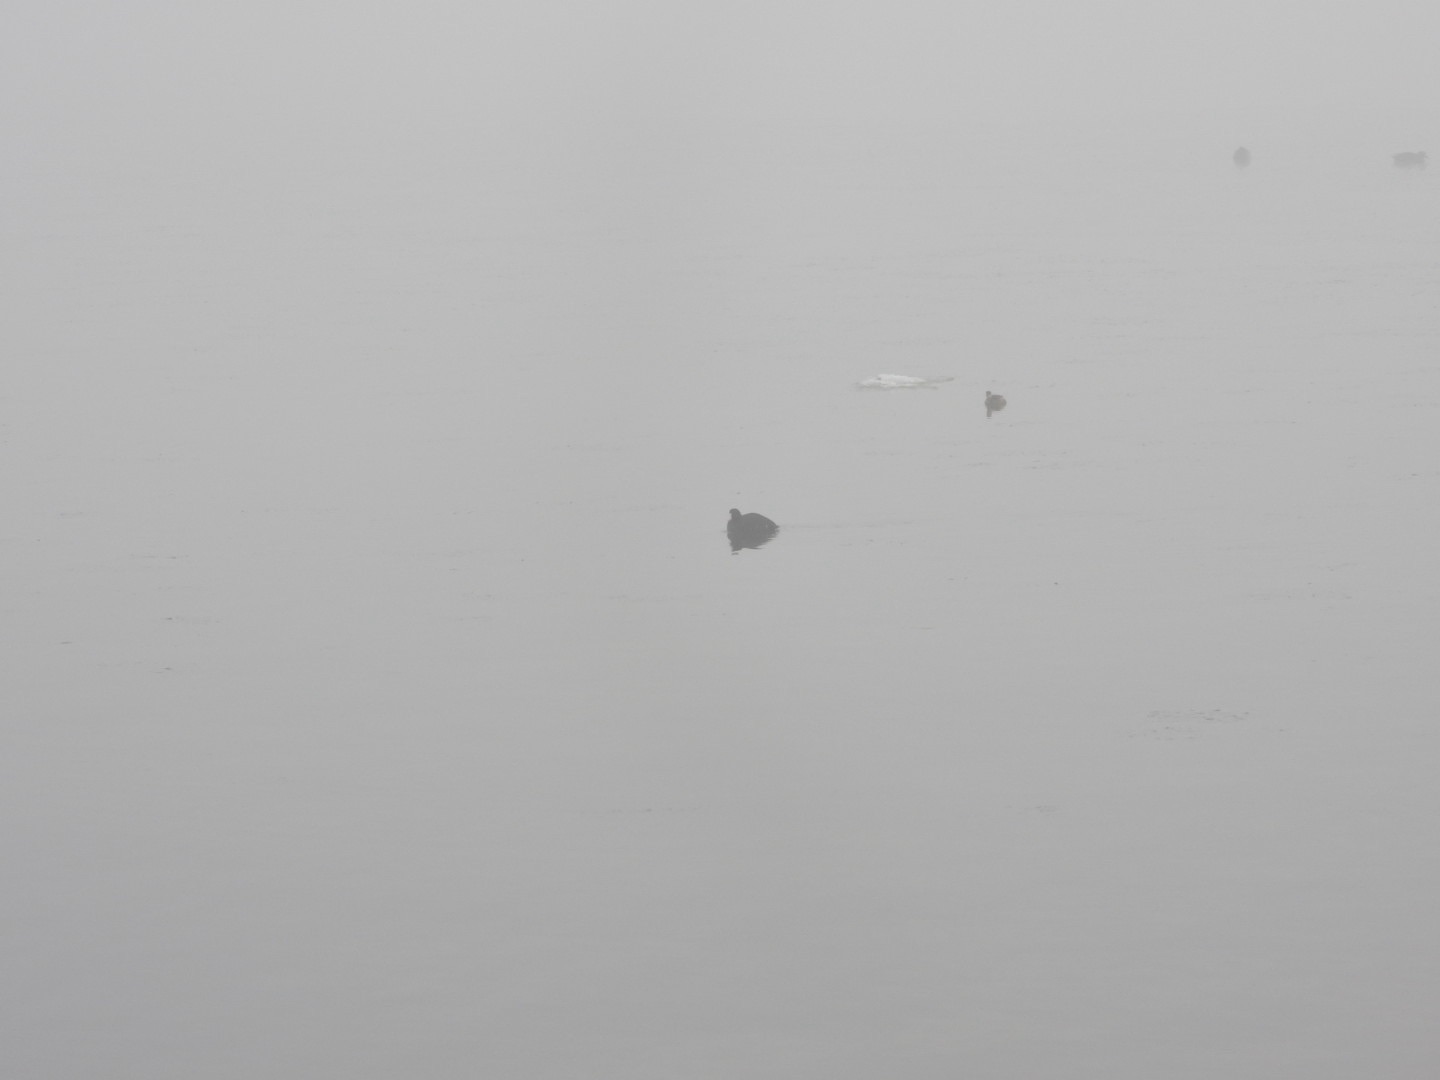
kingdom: Animalia
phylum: Chordata
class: Aves
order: Podicipediformes
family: Podicipedidae
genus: Tachybaptus
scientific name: Tachybaptus ruficollis
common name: Lille lappedykker
